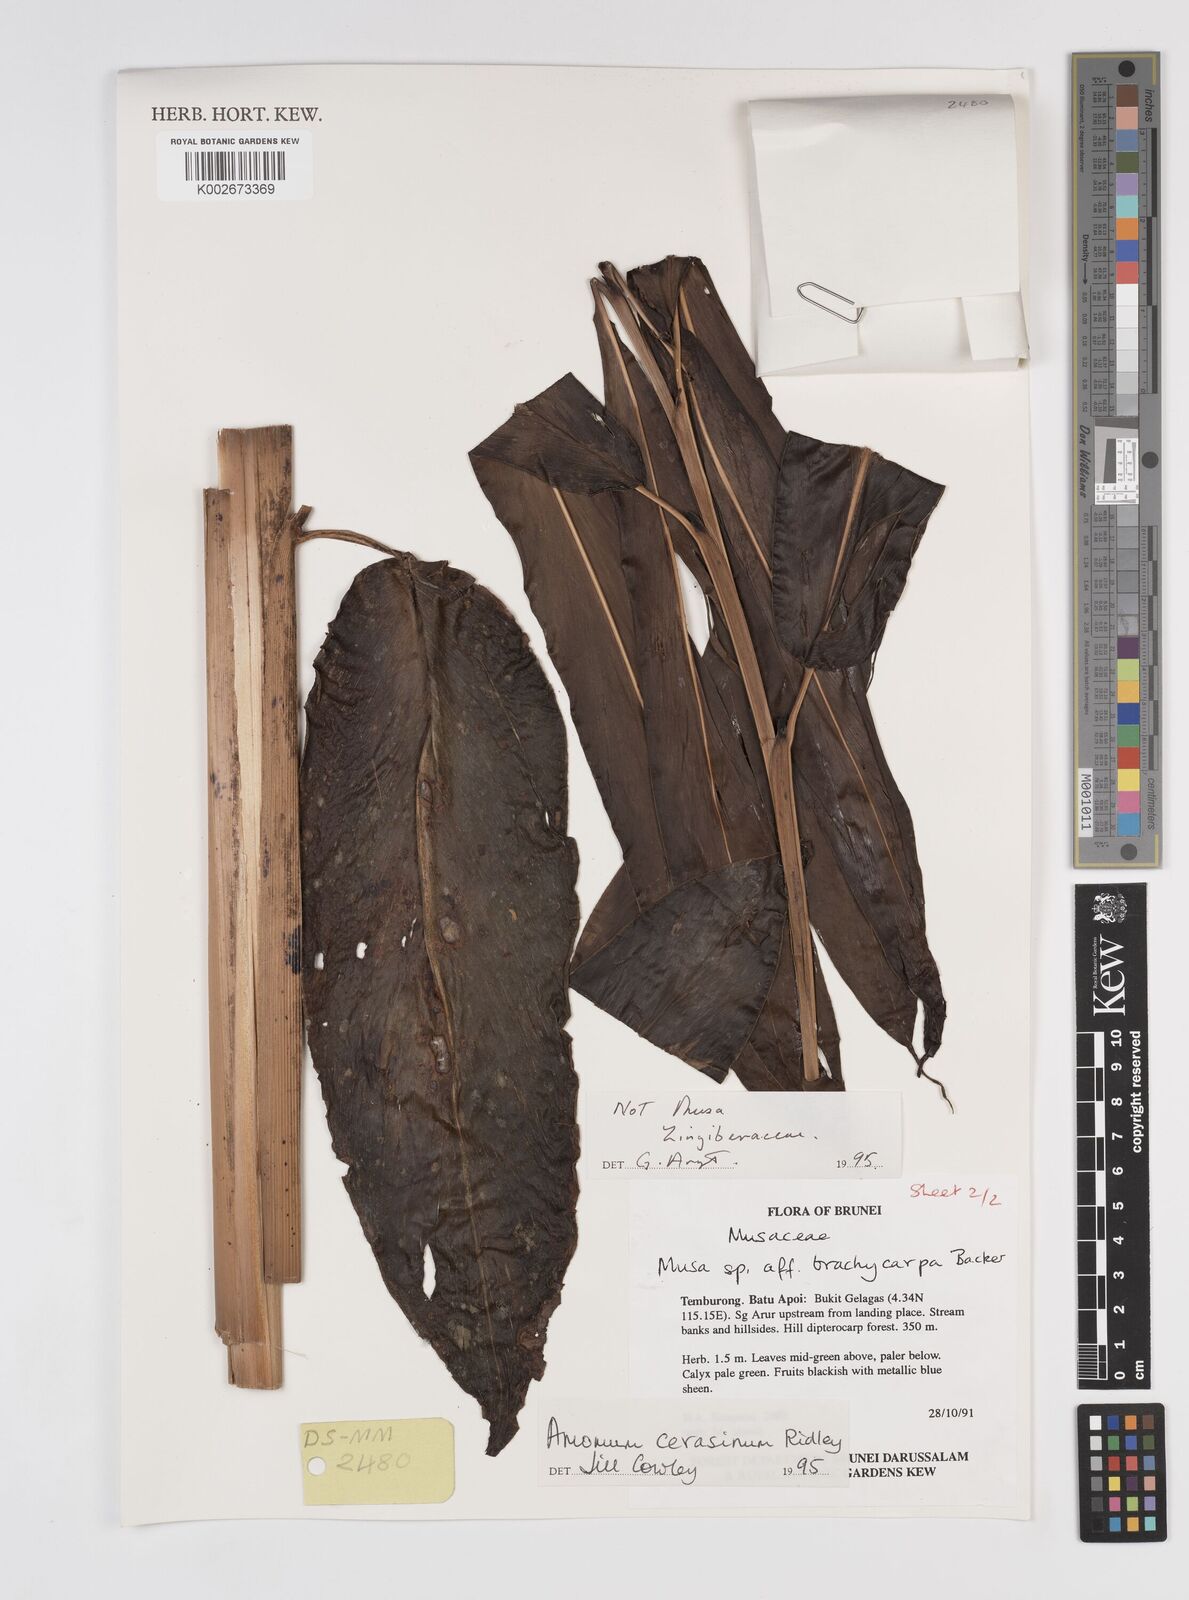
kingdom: Plantae
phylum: Tracheophyta
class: Liliopsida
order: Zingiberales
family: Zingiberaceae
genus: Meistera
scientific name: Meistera cerasina
